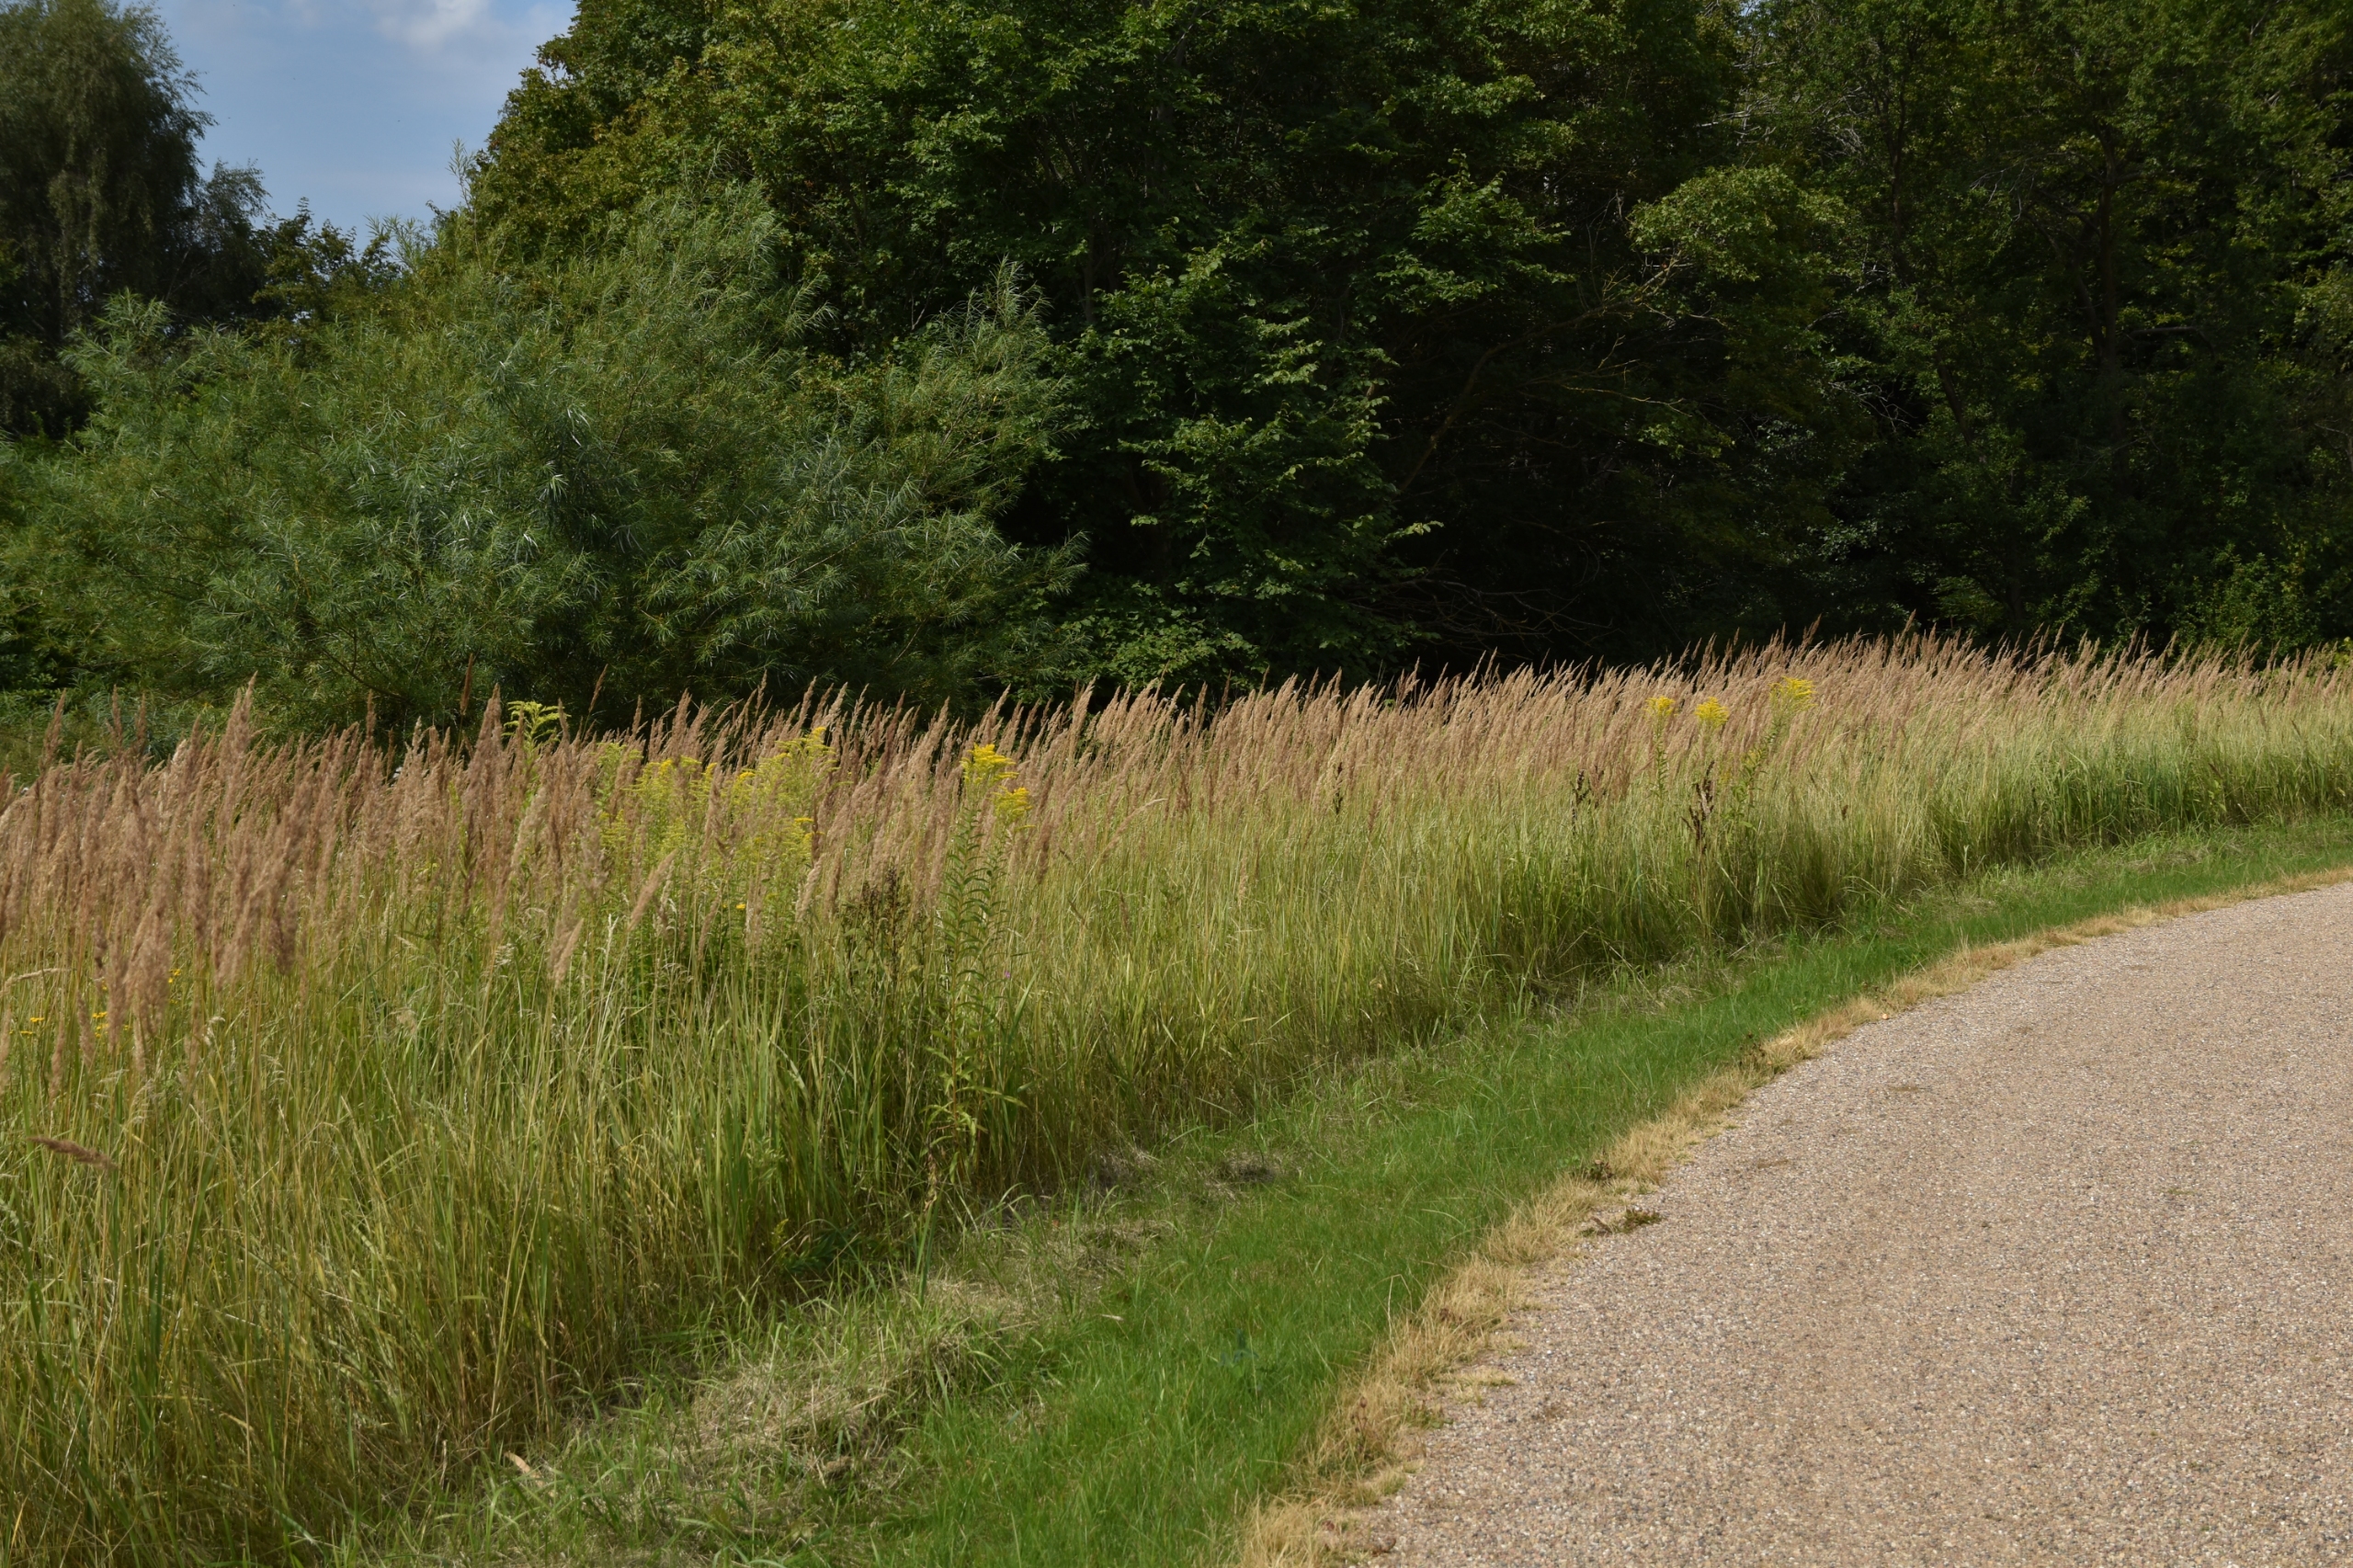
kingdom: Plantae
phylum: Tracheophyta
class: Liliopsida
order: Poales
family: Poaceae
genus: Calamagrostis
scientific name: Calamagrostis epigejos
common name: Bjerg-rørhvene
